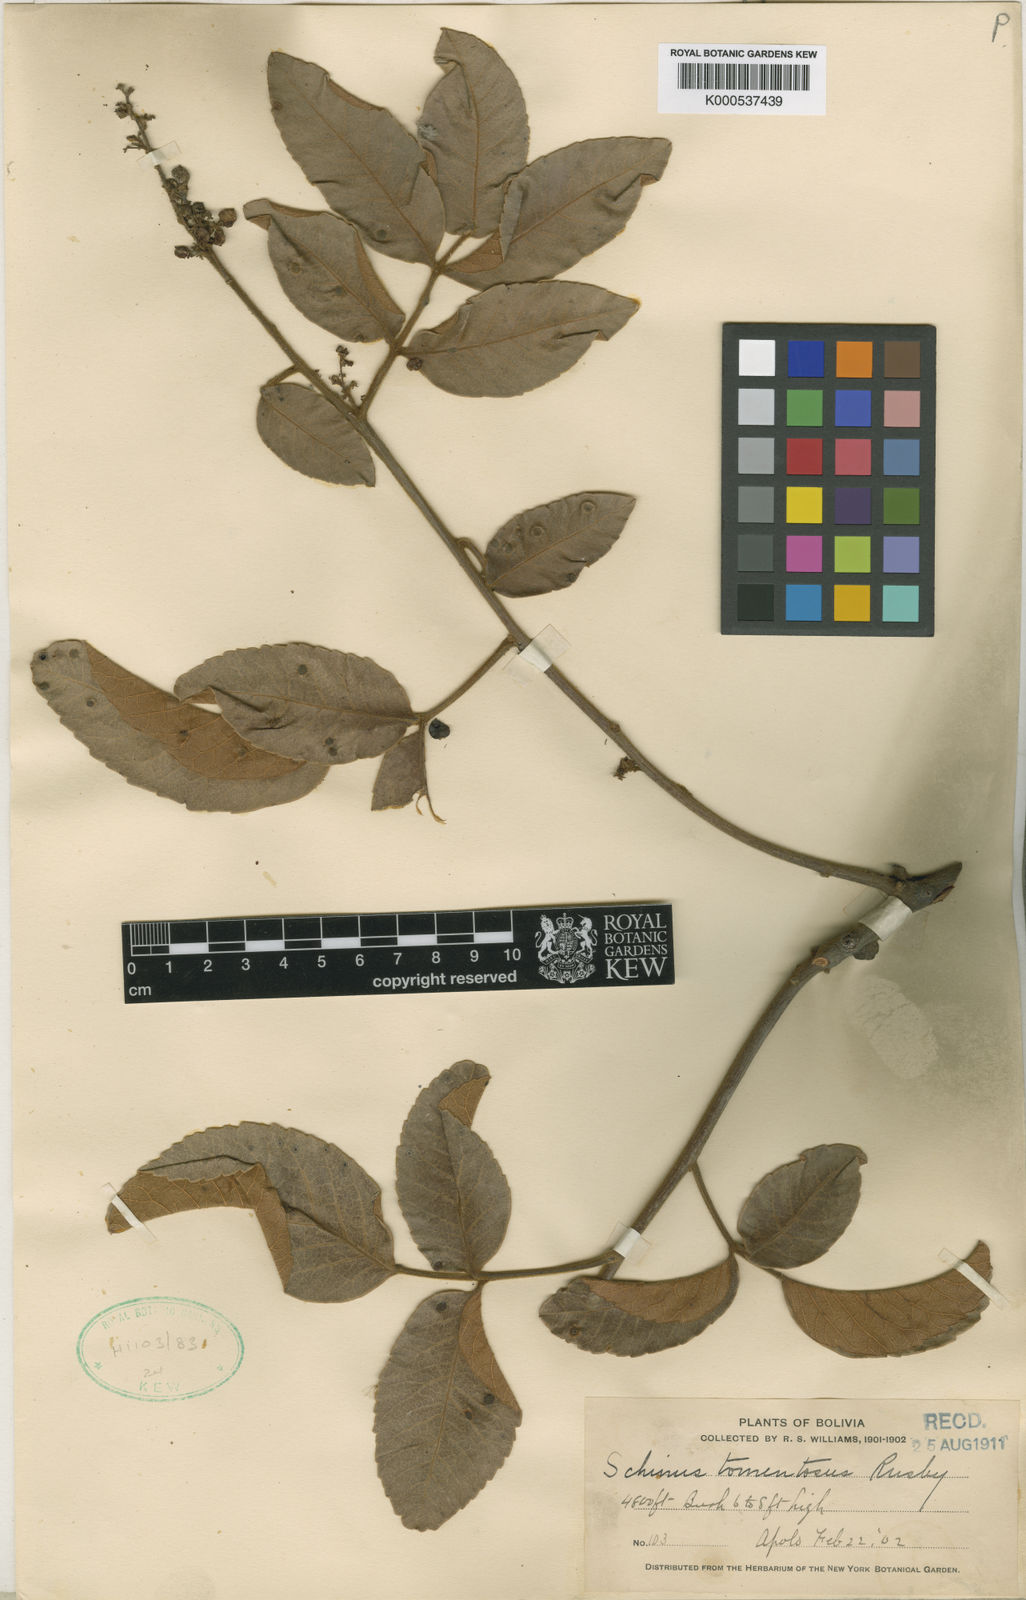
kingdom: Plantae
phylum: Tracheophyta
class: Magnoliopsida
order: Sapindales
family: Anacardiaceae
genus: Mauria
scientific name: Mauria subserrata
